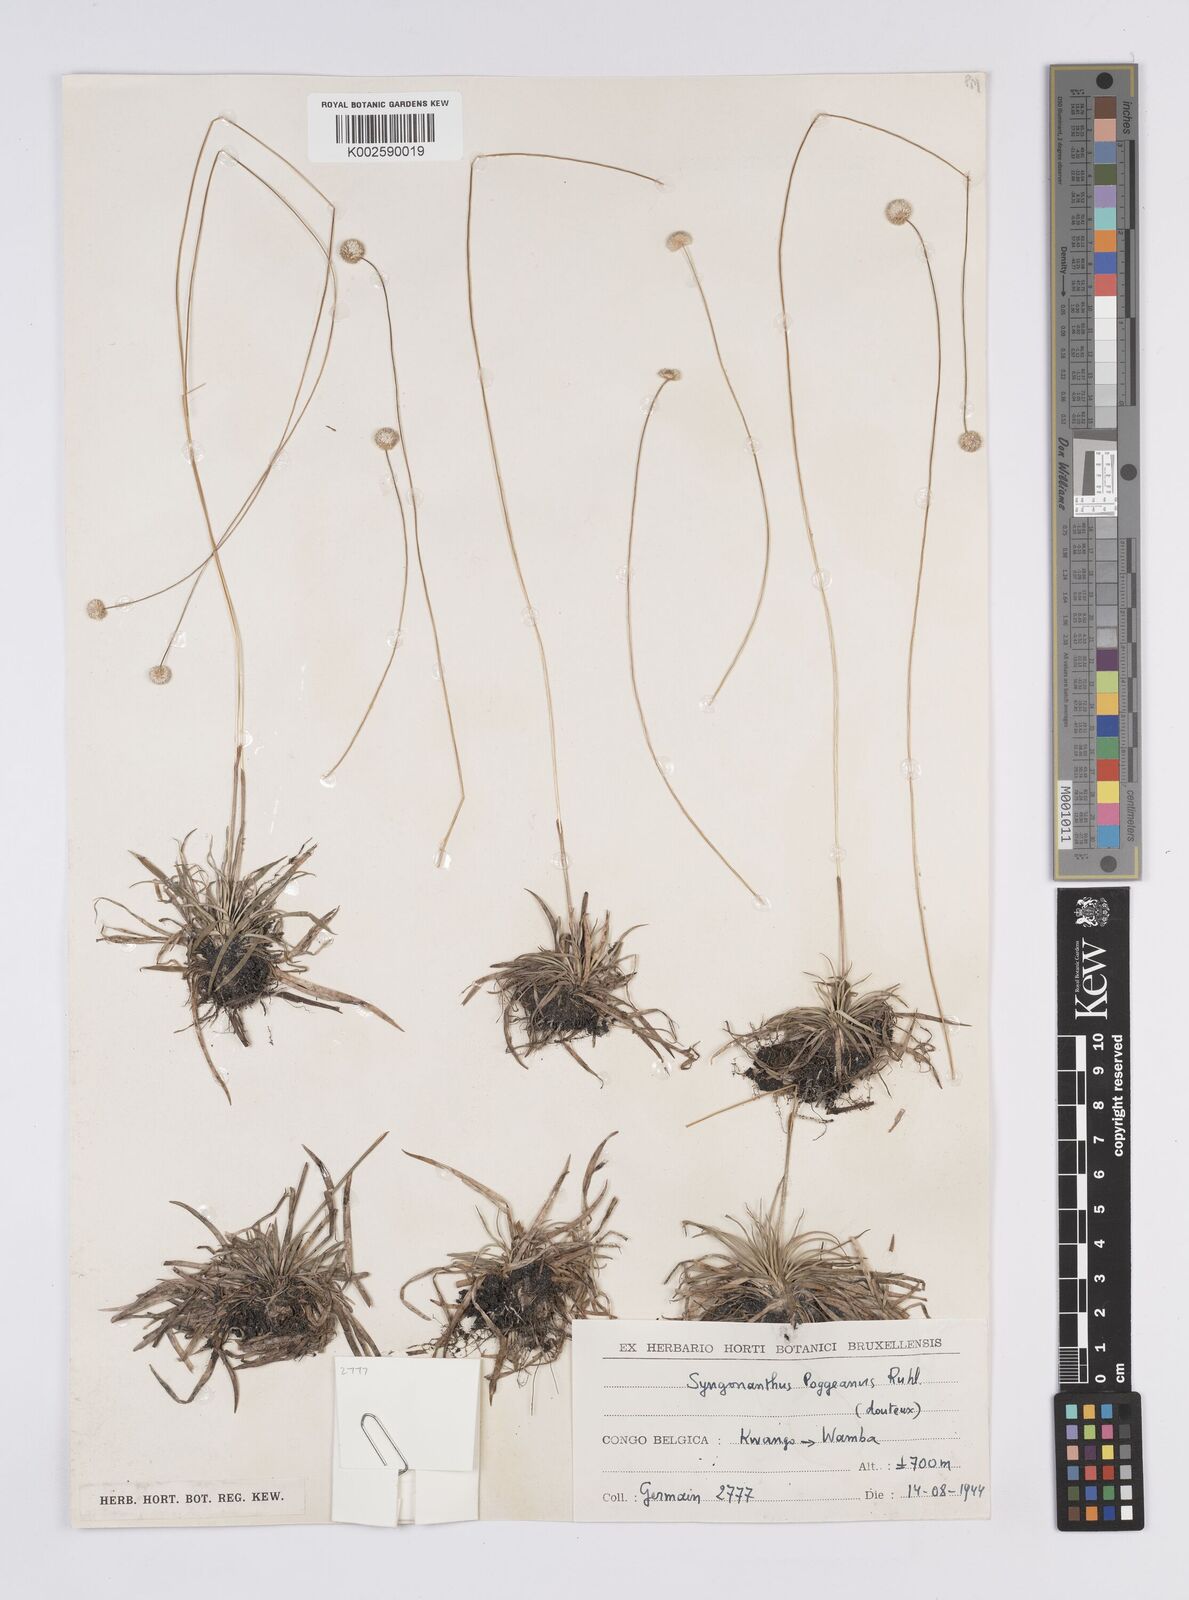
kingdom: Plantae
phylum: Tracheophyta
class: Liliopsida
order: Poales
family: Eriocaulaceae
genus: Syngonanthus
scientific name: Syngonanthus poggeanus
